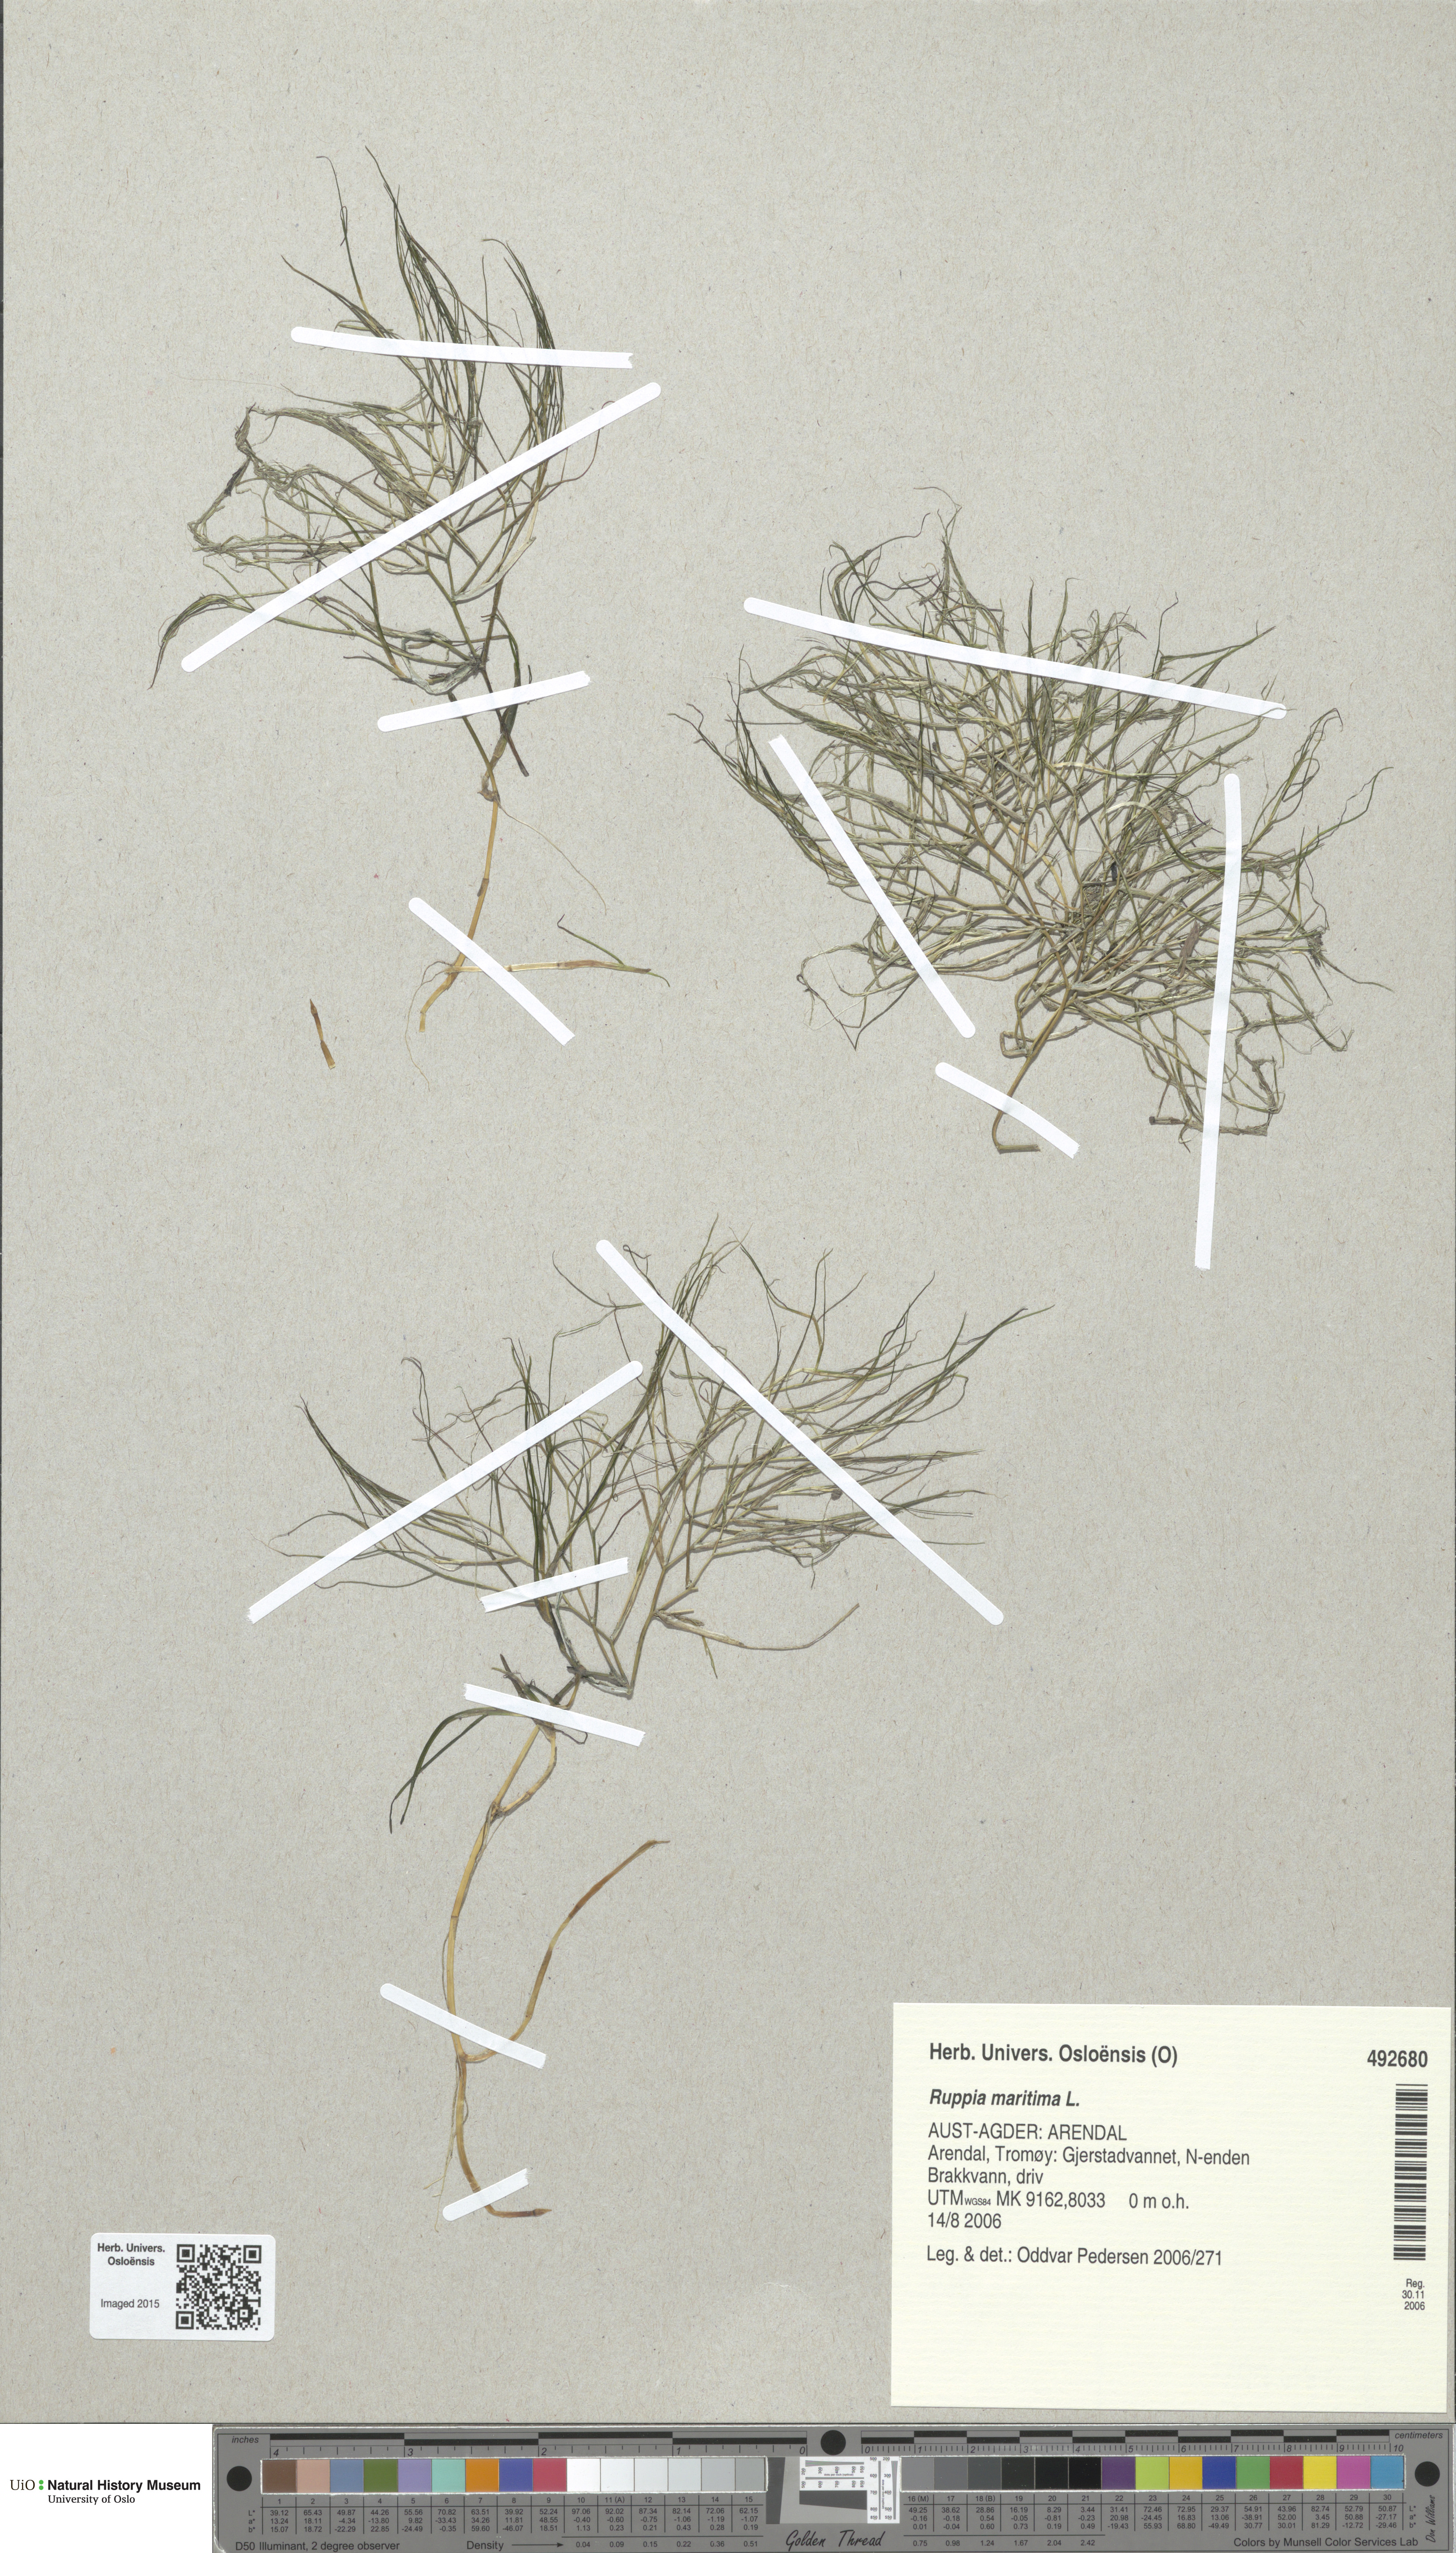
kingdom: Plantae
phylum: Tracheophyta
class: Liliopsida
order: Alismatales
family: Ruppiaceae
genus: Ruppia
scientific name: Ruppia maritima
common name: Beaked tasselweed
